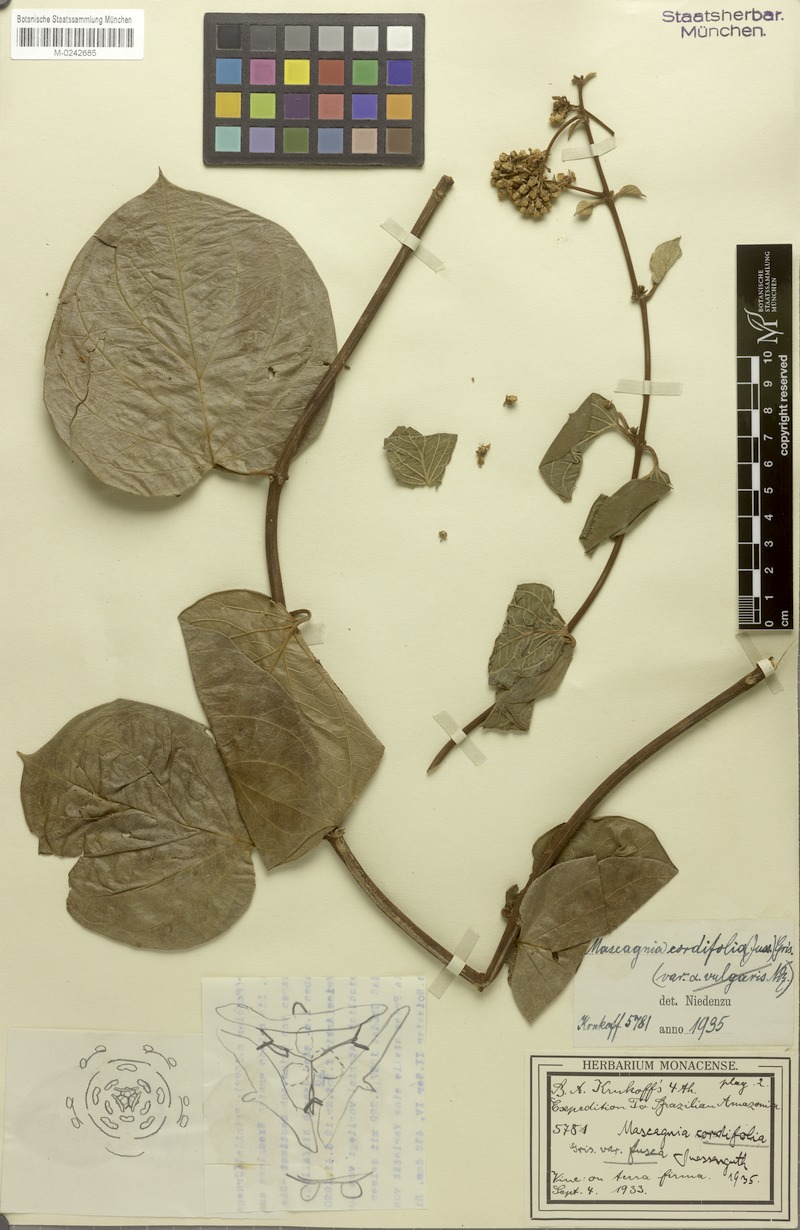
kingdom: Plantae
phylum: Tracheophyta
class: Magnoliopsida
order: Malpighiales
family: Malpighiaceae
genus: Mascagnia
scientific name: Mascagnia cordifolia
